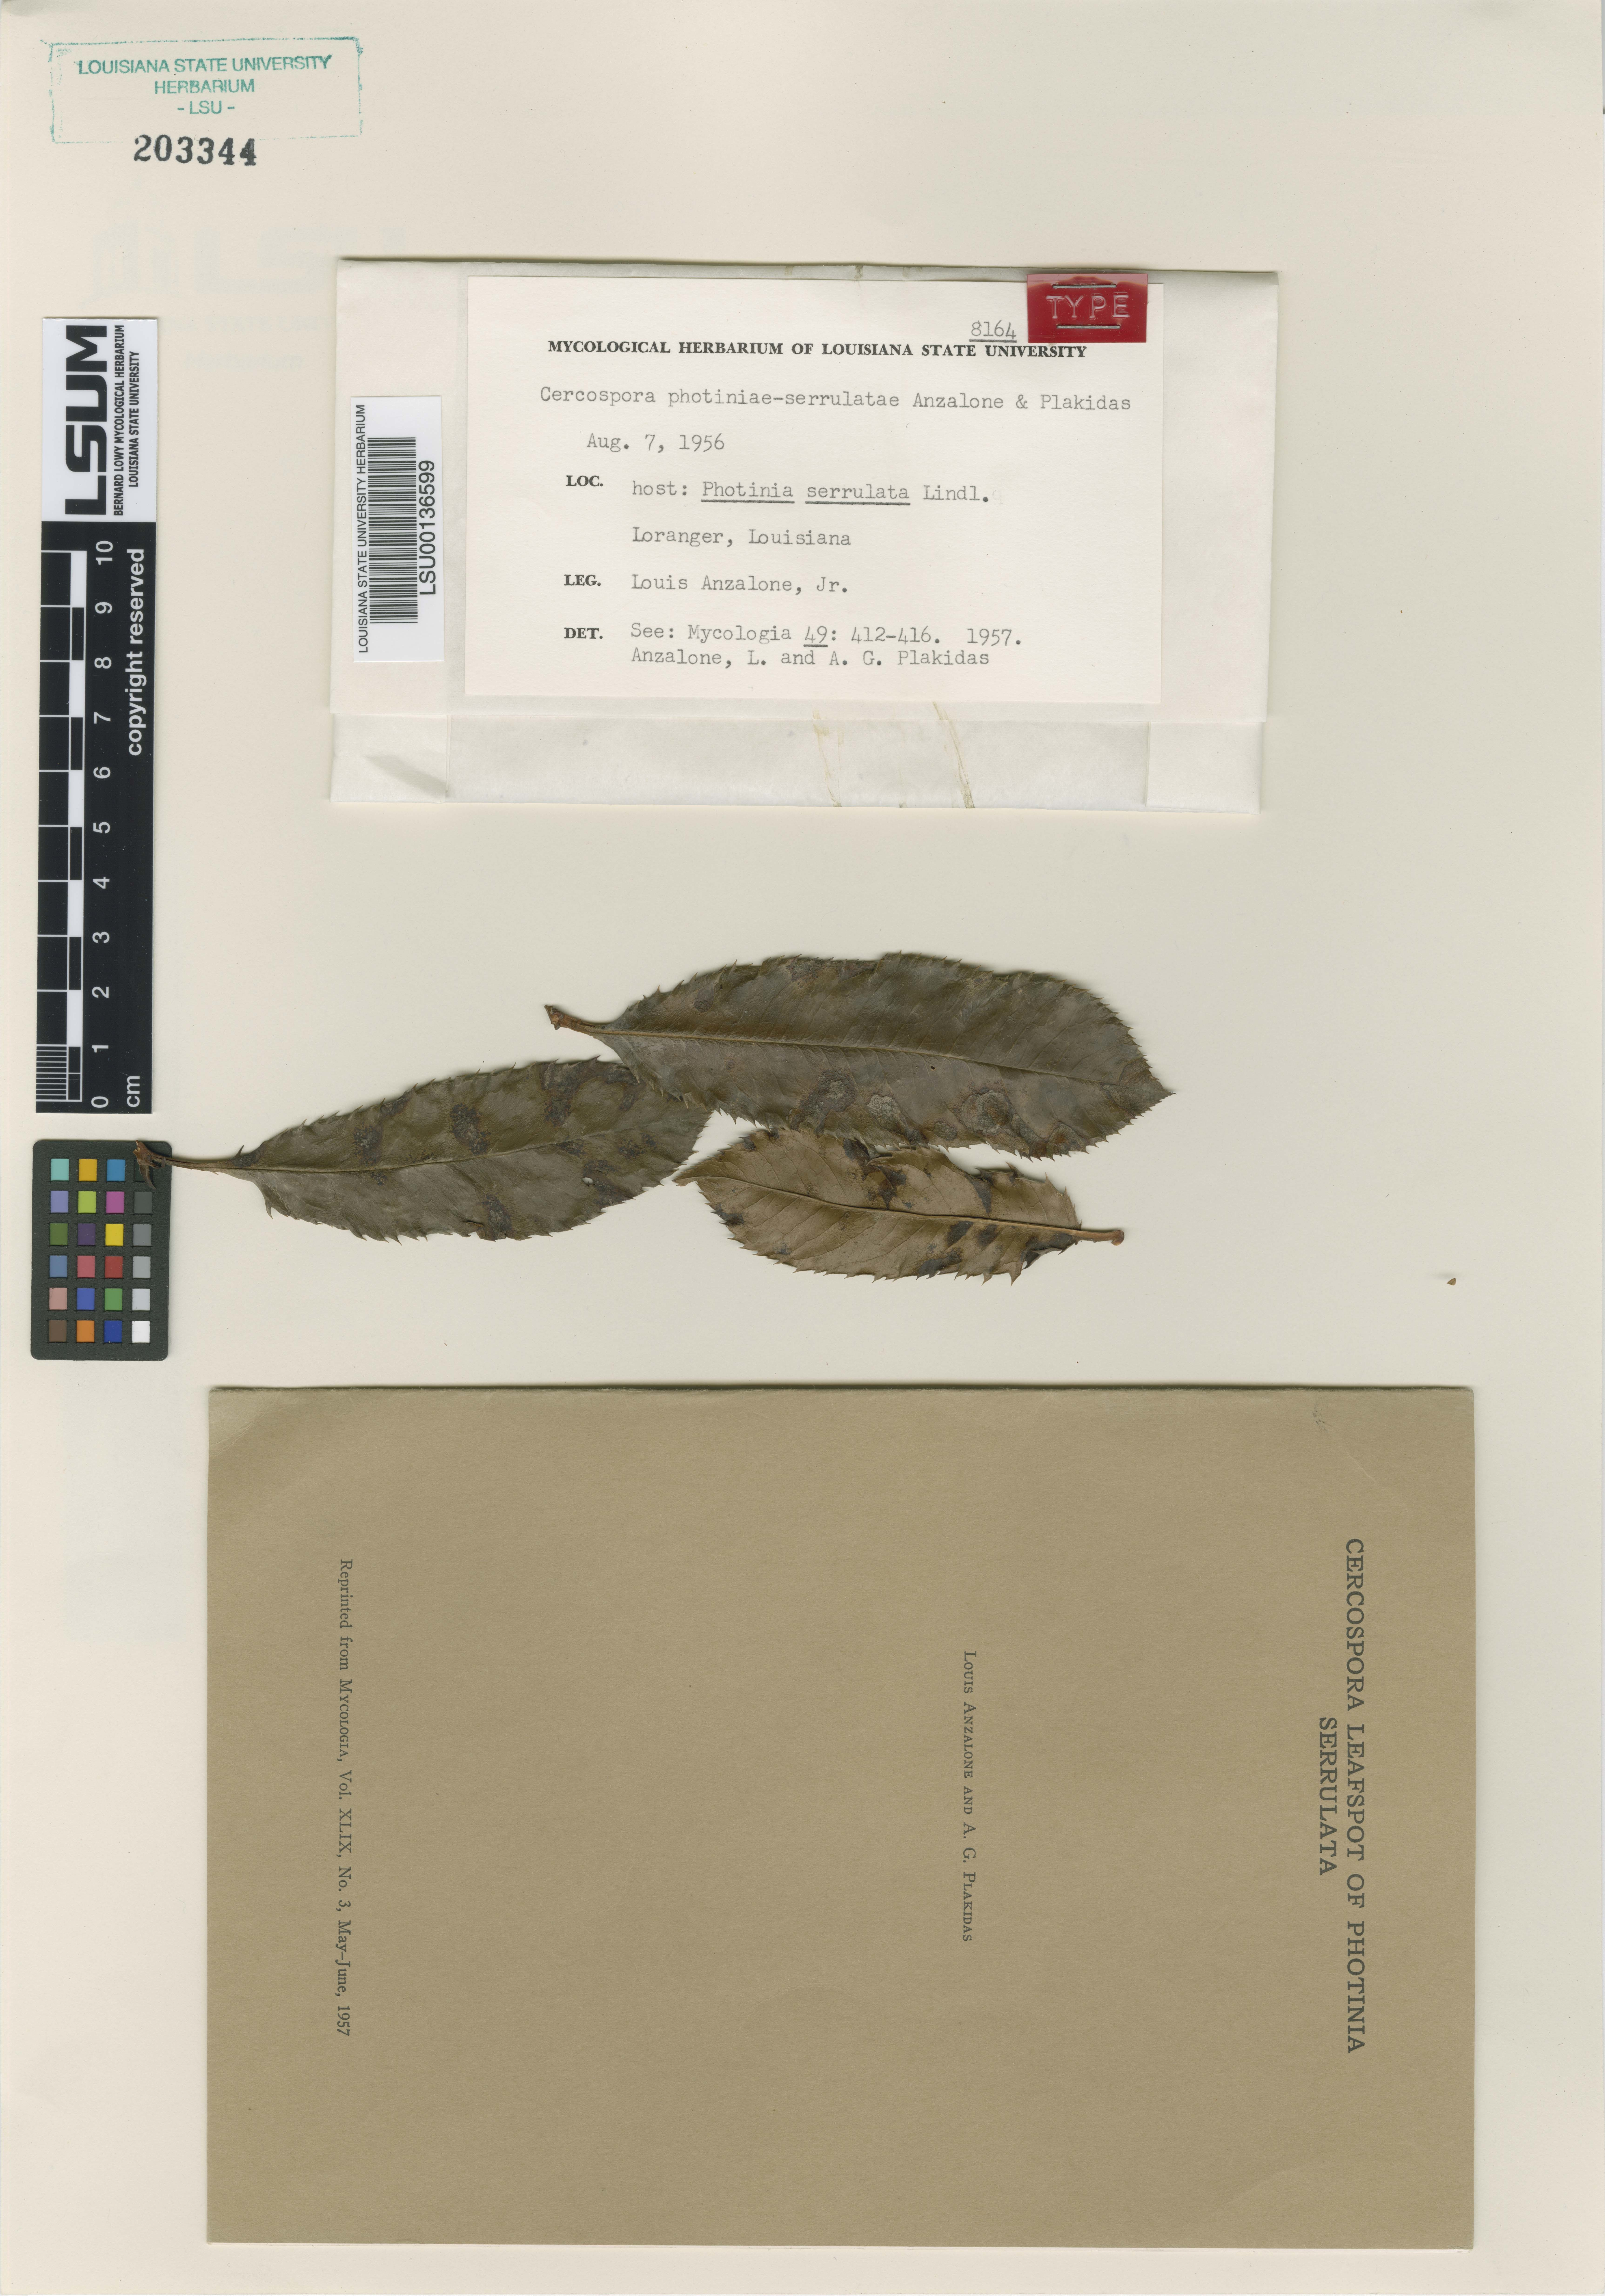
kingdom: Fungi
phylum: Ascomycota
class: Dothideomycetes
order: Mycosphaerellales
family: Mycosphaerellaceae
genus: Pseudocercospora
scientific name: Pseudocercospora photiniae-serrulatae
